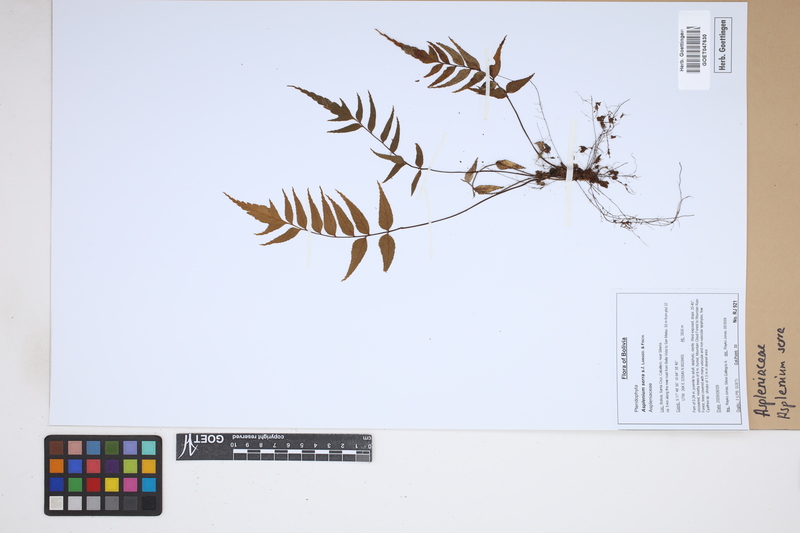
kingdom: Plantae
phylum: Tracheophyta
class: Polypodiopsida
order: Polypodiales
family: Aspleniaceae
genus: Asplenium
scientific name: Asplenium serra
